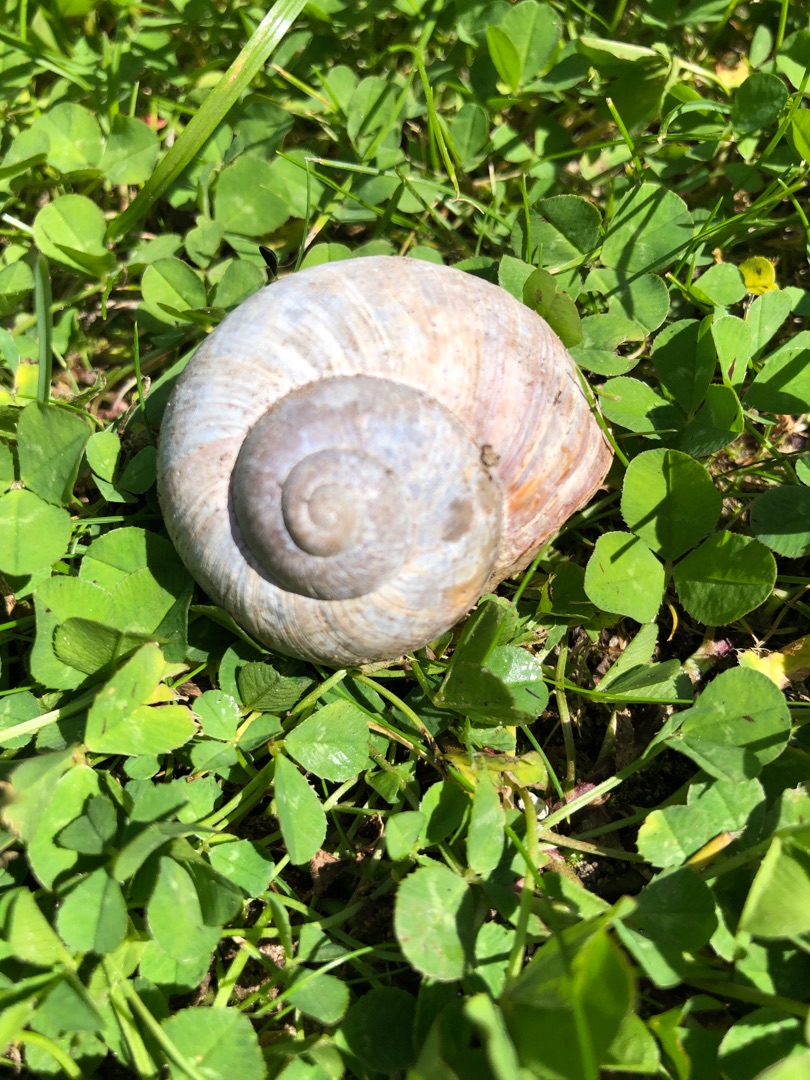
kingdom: Animalia
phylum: Mollusca
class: Gastropoda
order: Stylommatophora
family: Helicidae
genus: Helix
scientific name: Helix pomatia
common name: Vinbjergsnegl
